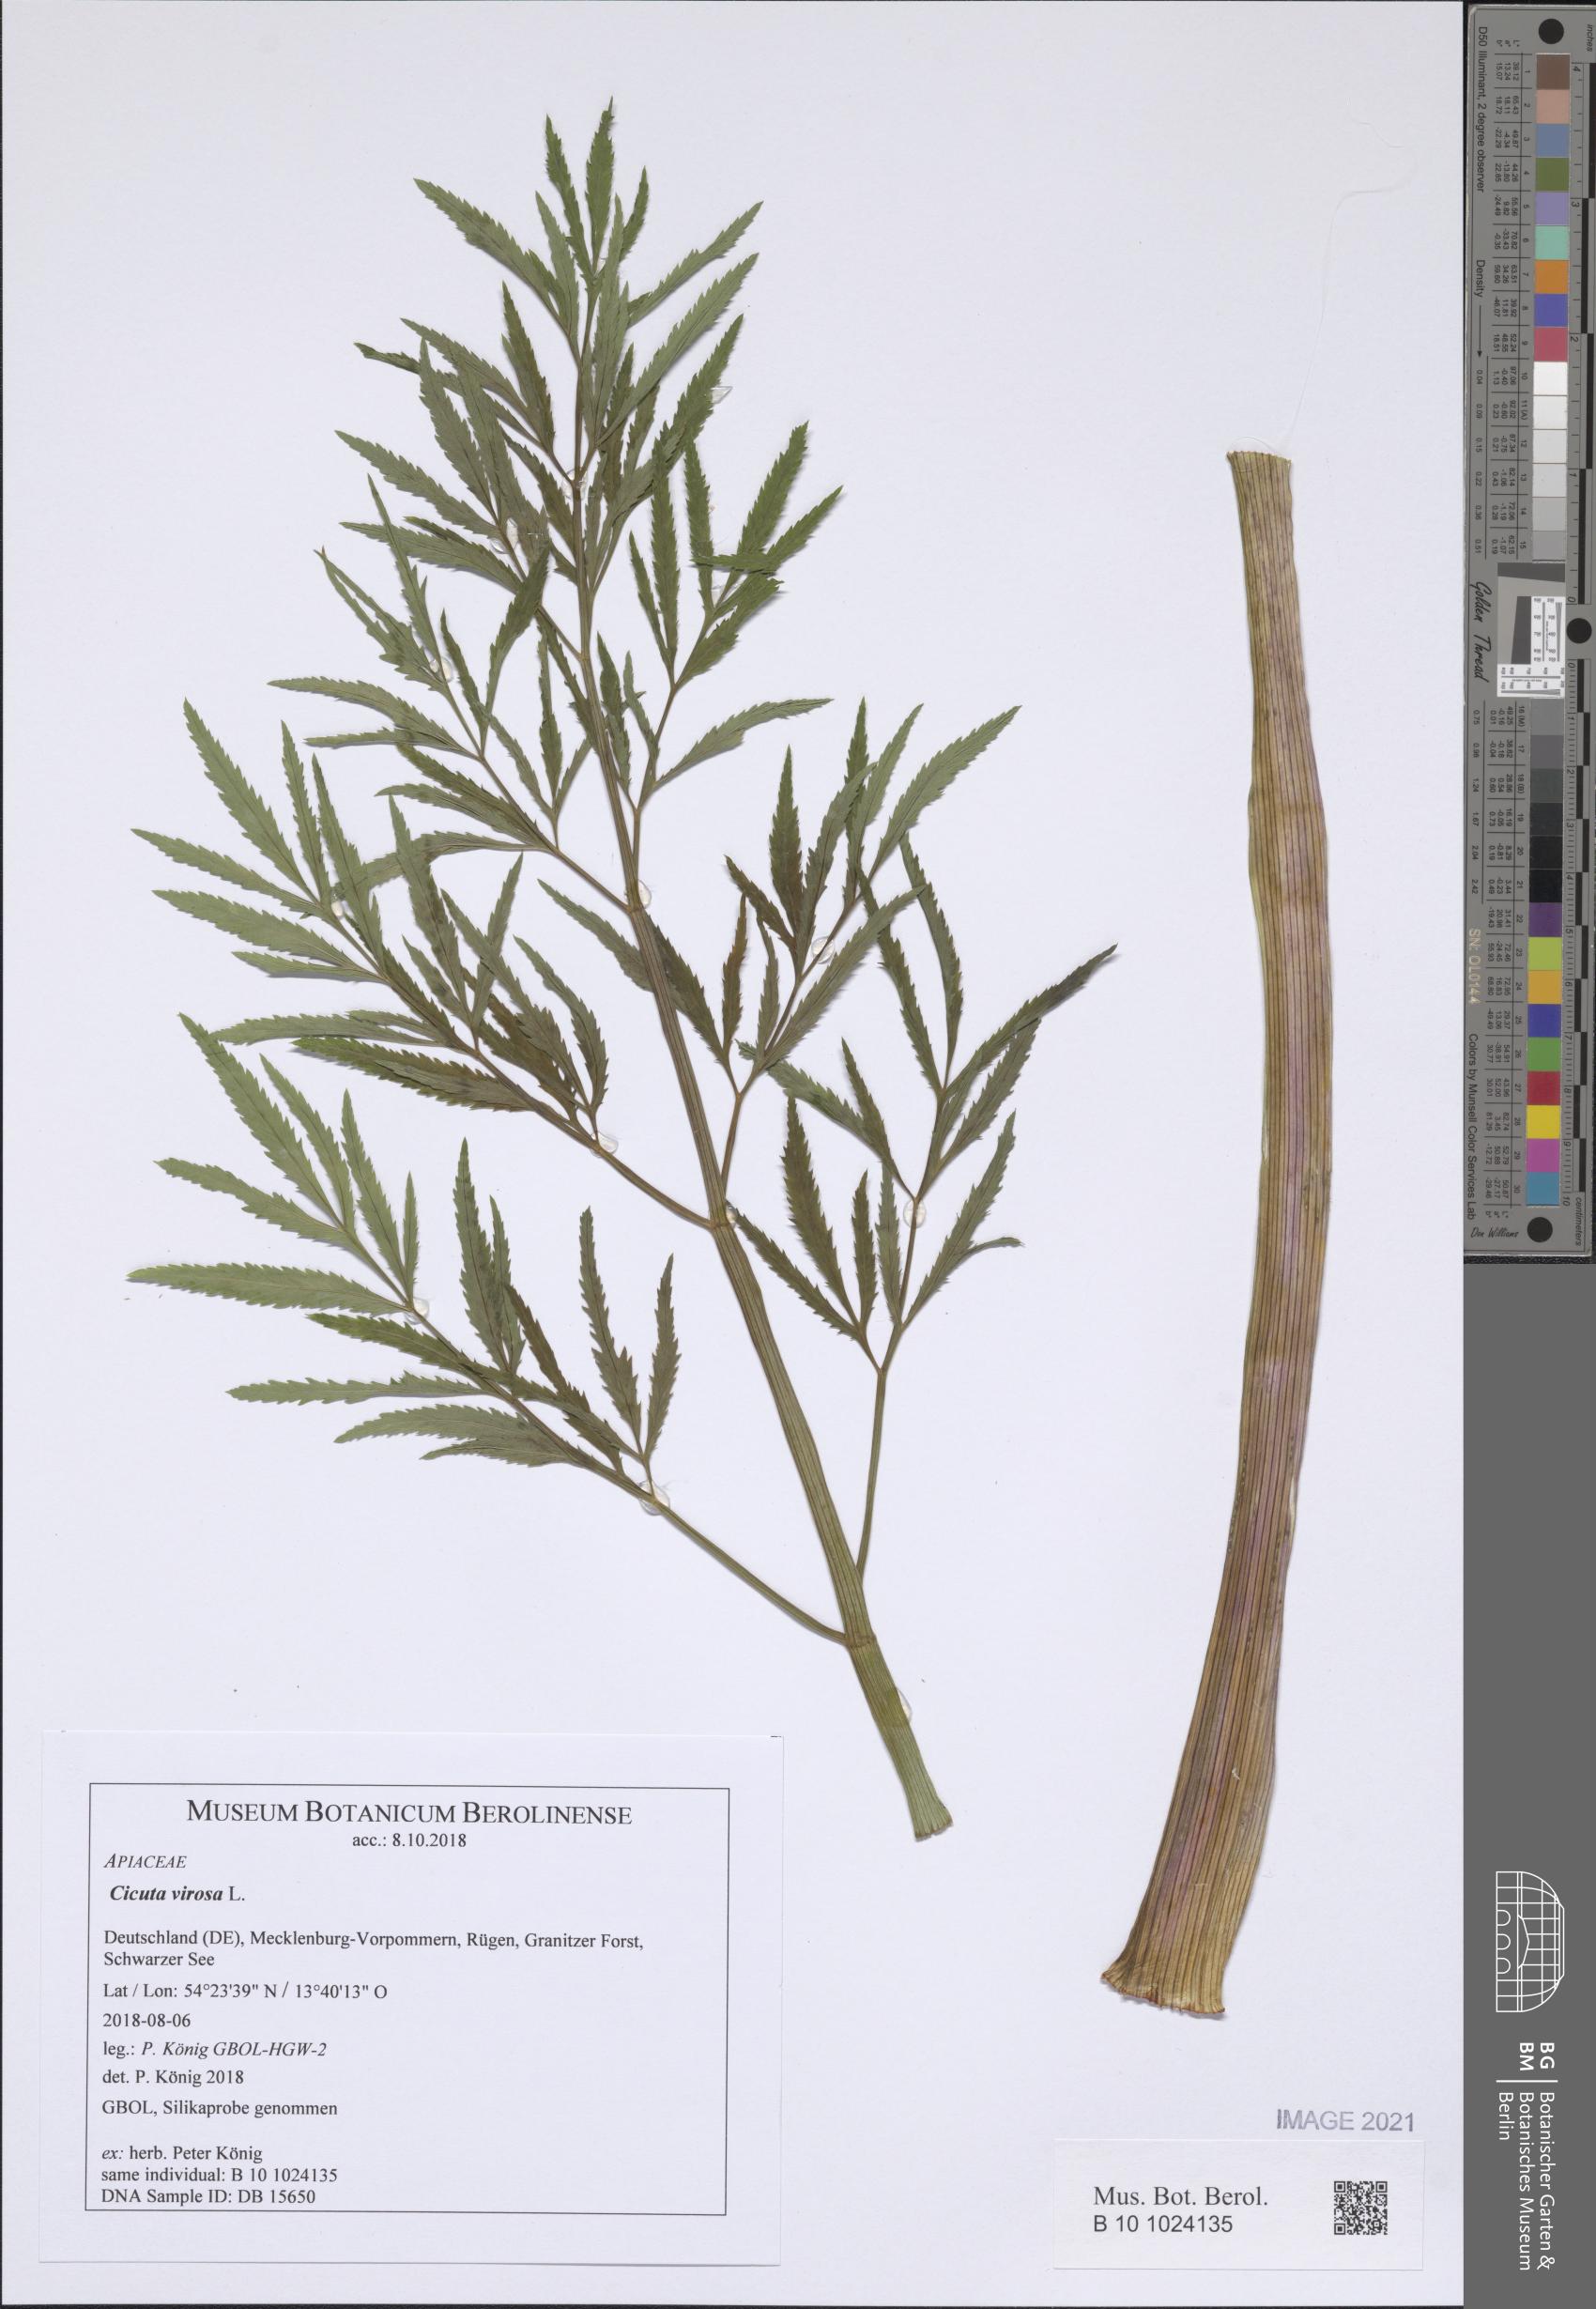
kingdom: Plantae
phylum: Tracheophyta
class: Magnoliopsida
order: Apiales
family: Apiaceae
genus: Cicuta
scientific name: Cicuta virosa
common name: Cowbane
